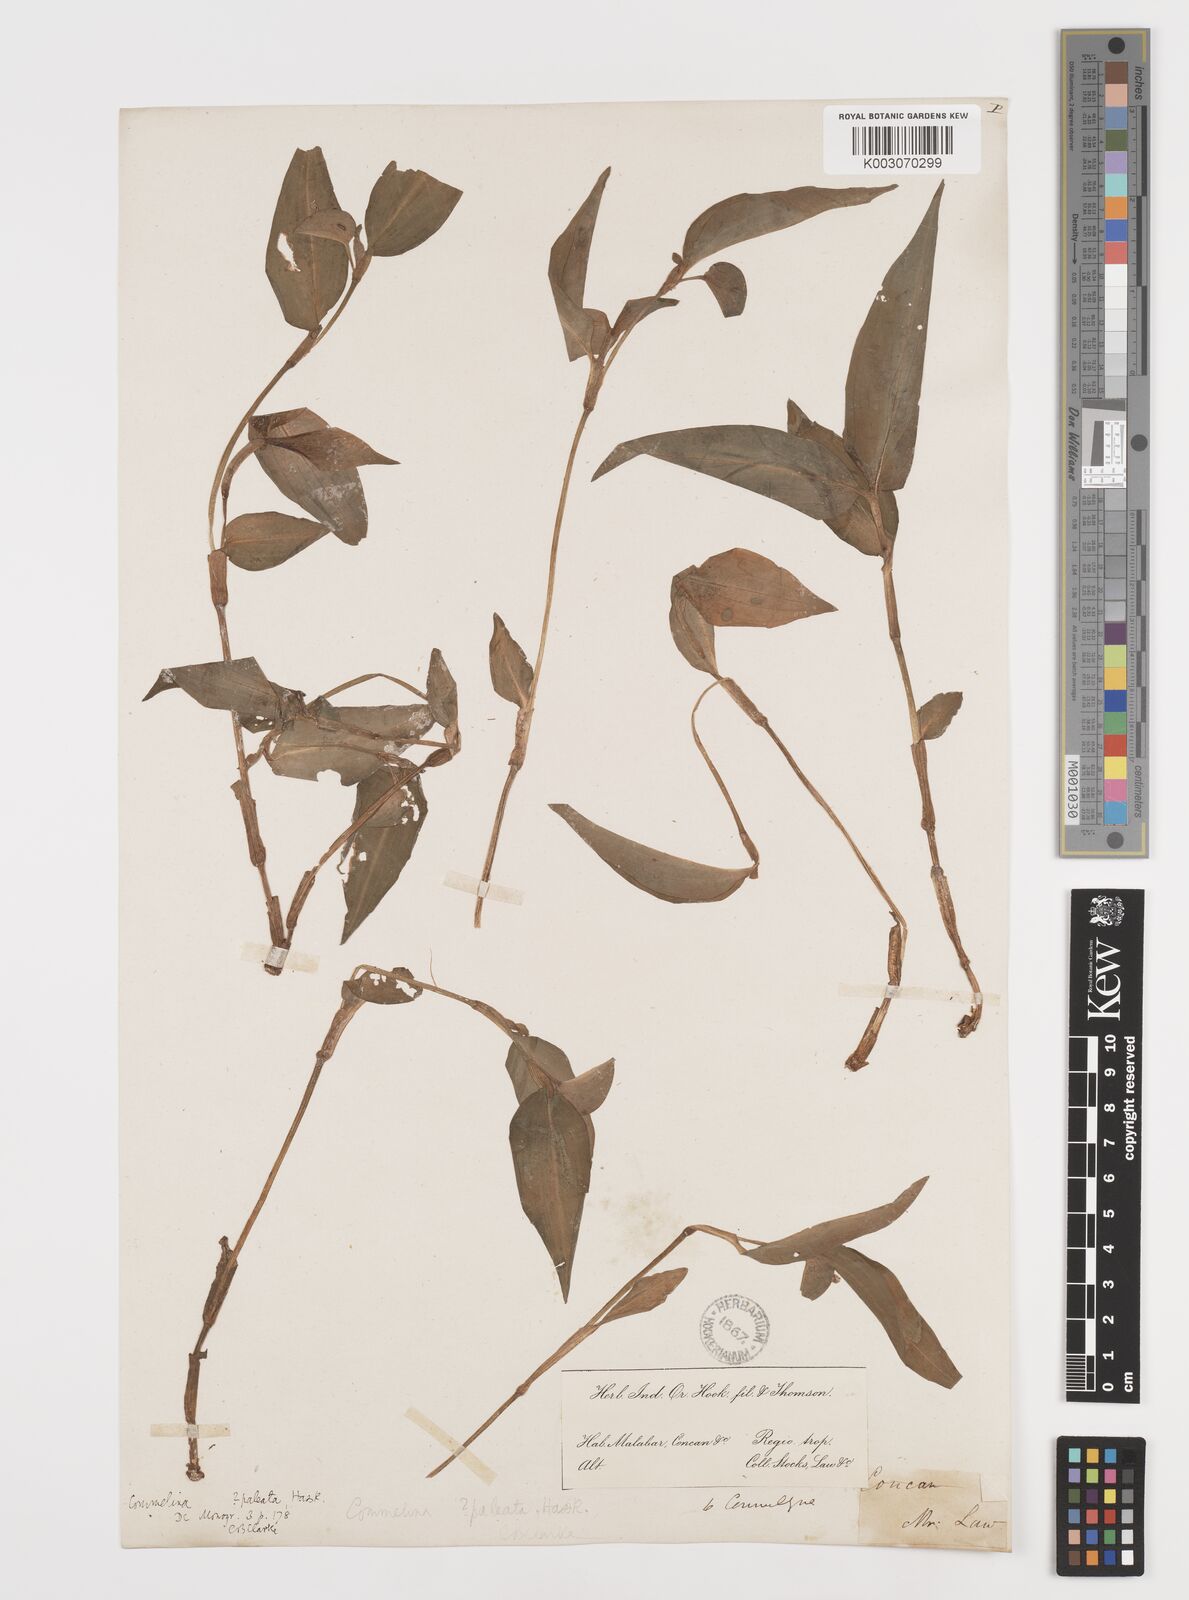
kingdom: Plantae
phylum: Tracheophyta
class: Liliopsida
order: Commelinales
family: Commelinaceae
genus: Commelina
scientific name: Commelina paleata
